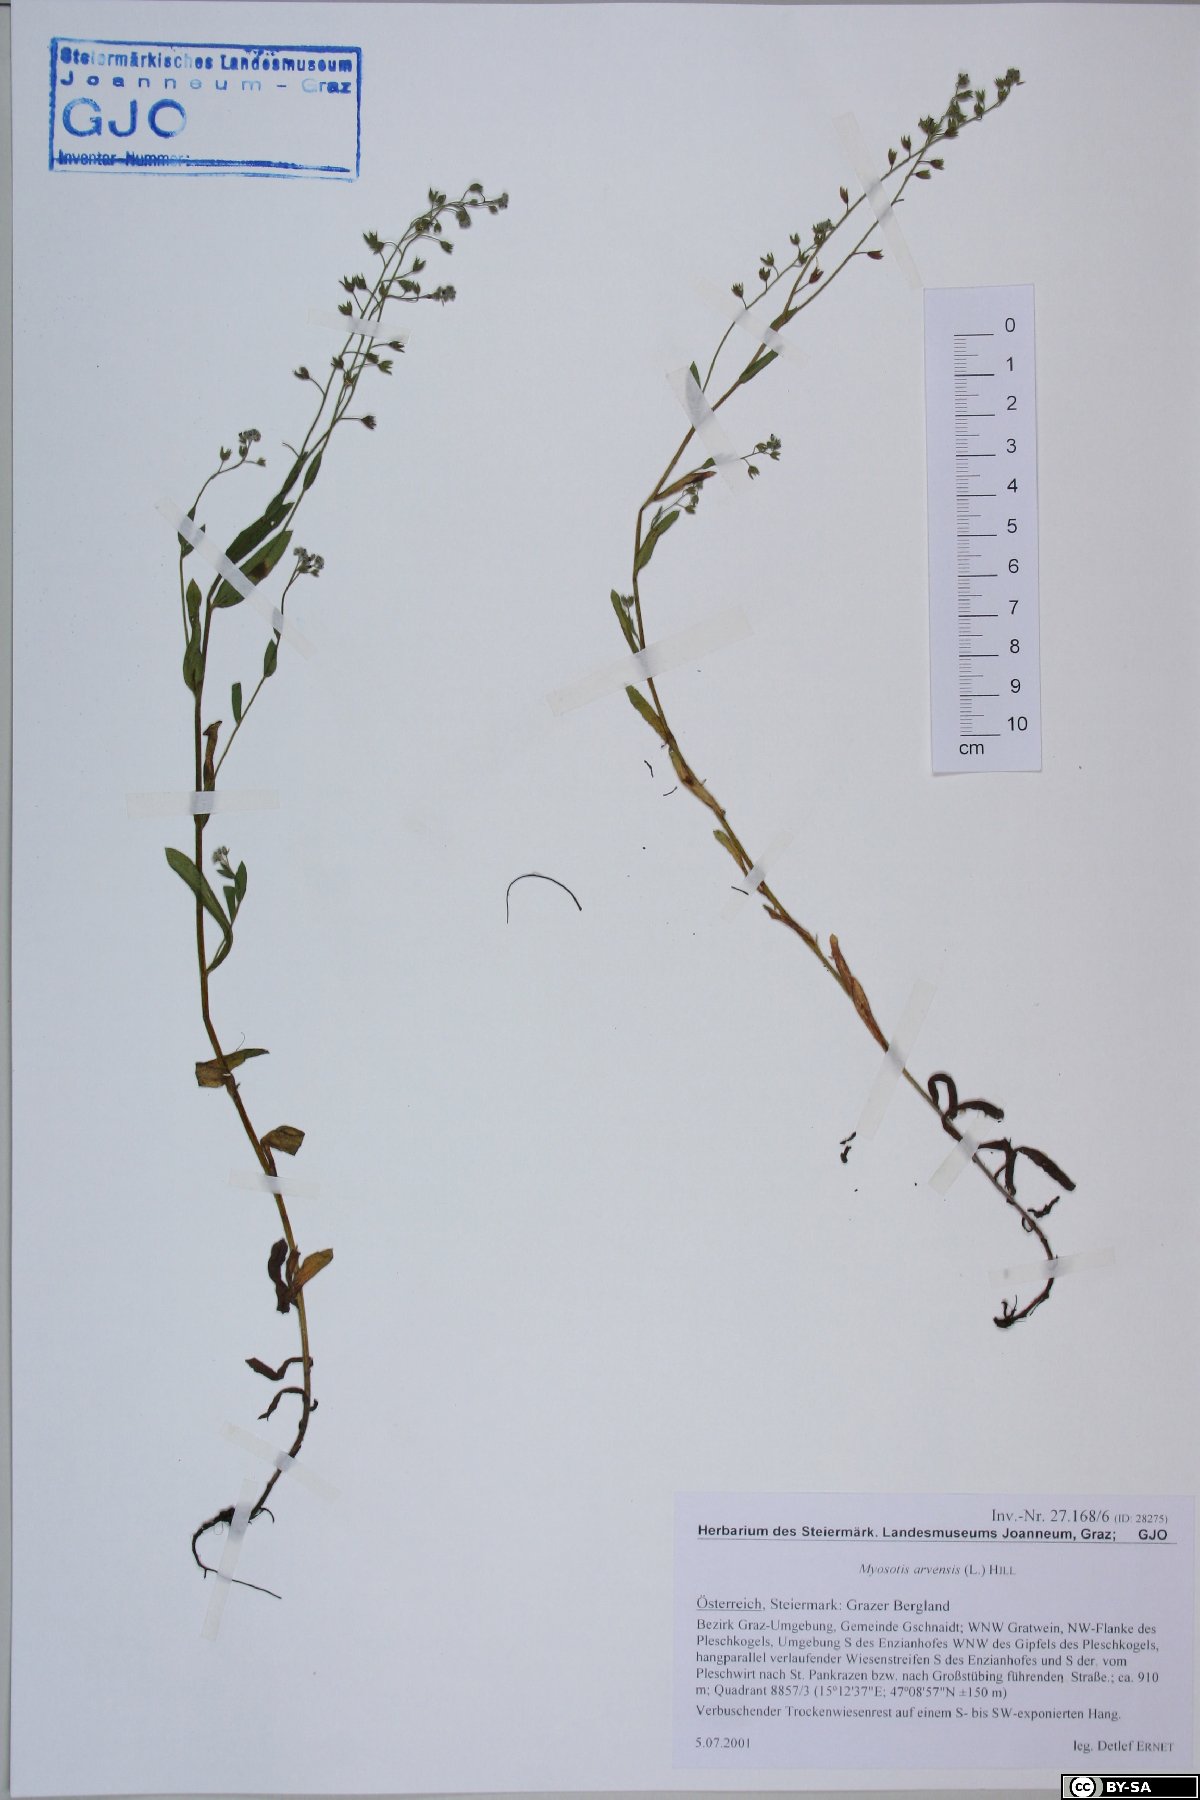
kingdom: Plantae
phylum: Tracheophyta
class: Magnoliopsida
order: Boraginales
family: Boraginaceae
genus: Myosotis
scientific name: Myosotis arvensis
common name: Field forget-me-not
